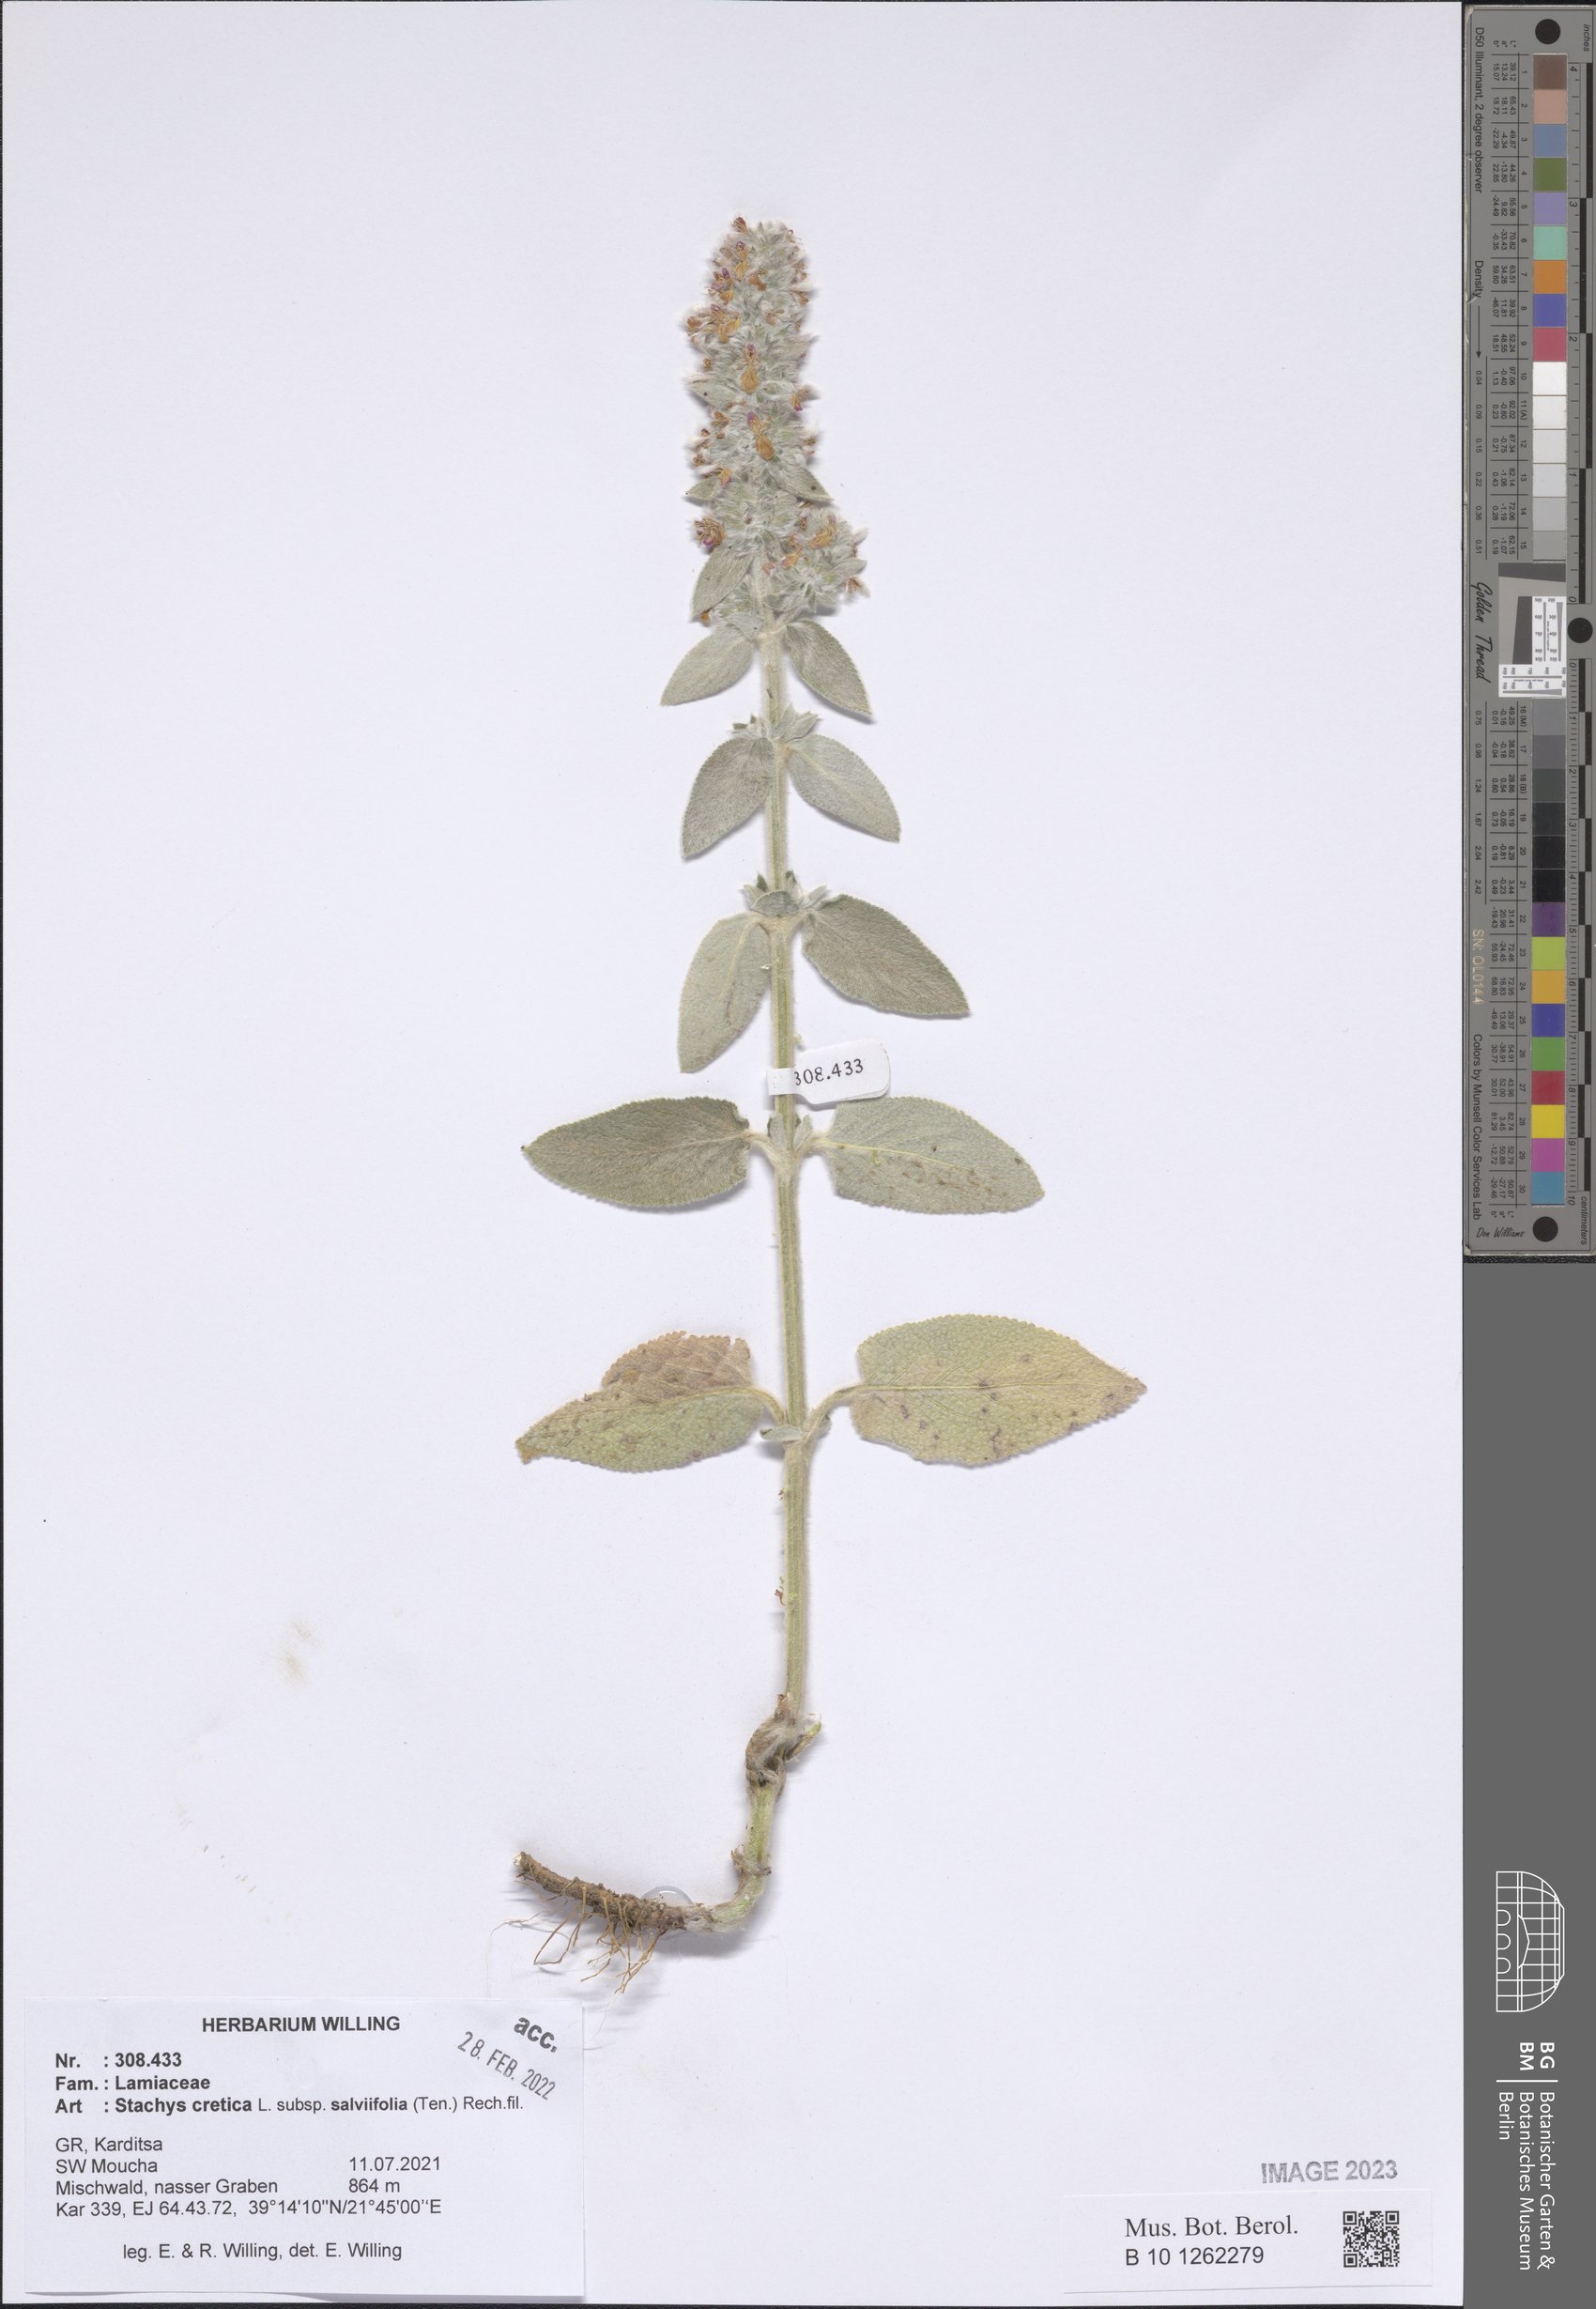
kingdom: Plantae
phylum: Tracheophyta
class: Magnoliopsida
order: Lamiales
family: Lamiaceae
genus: Stachys
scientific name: Stachys cretica
